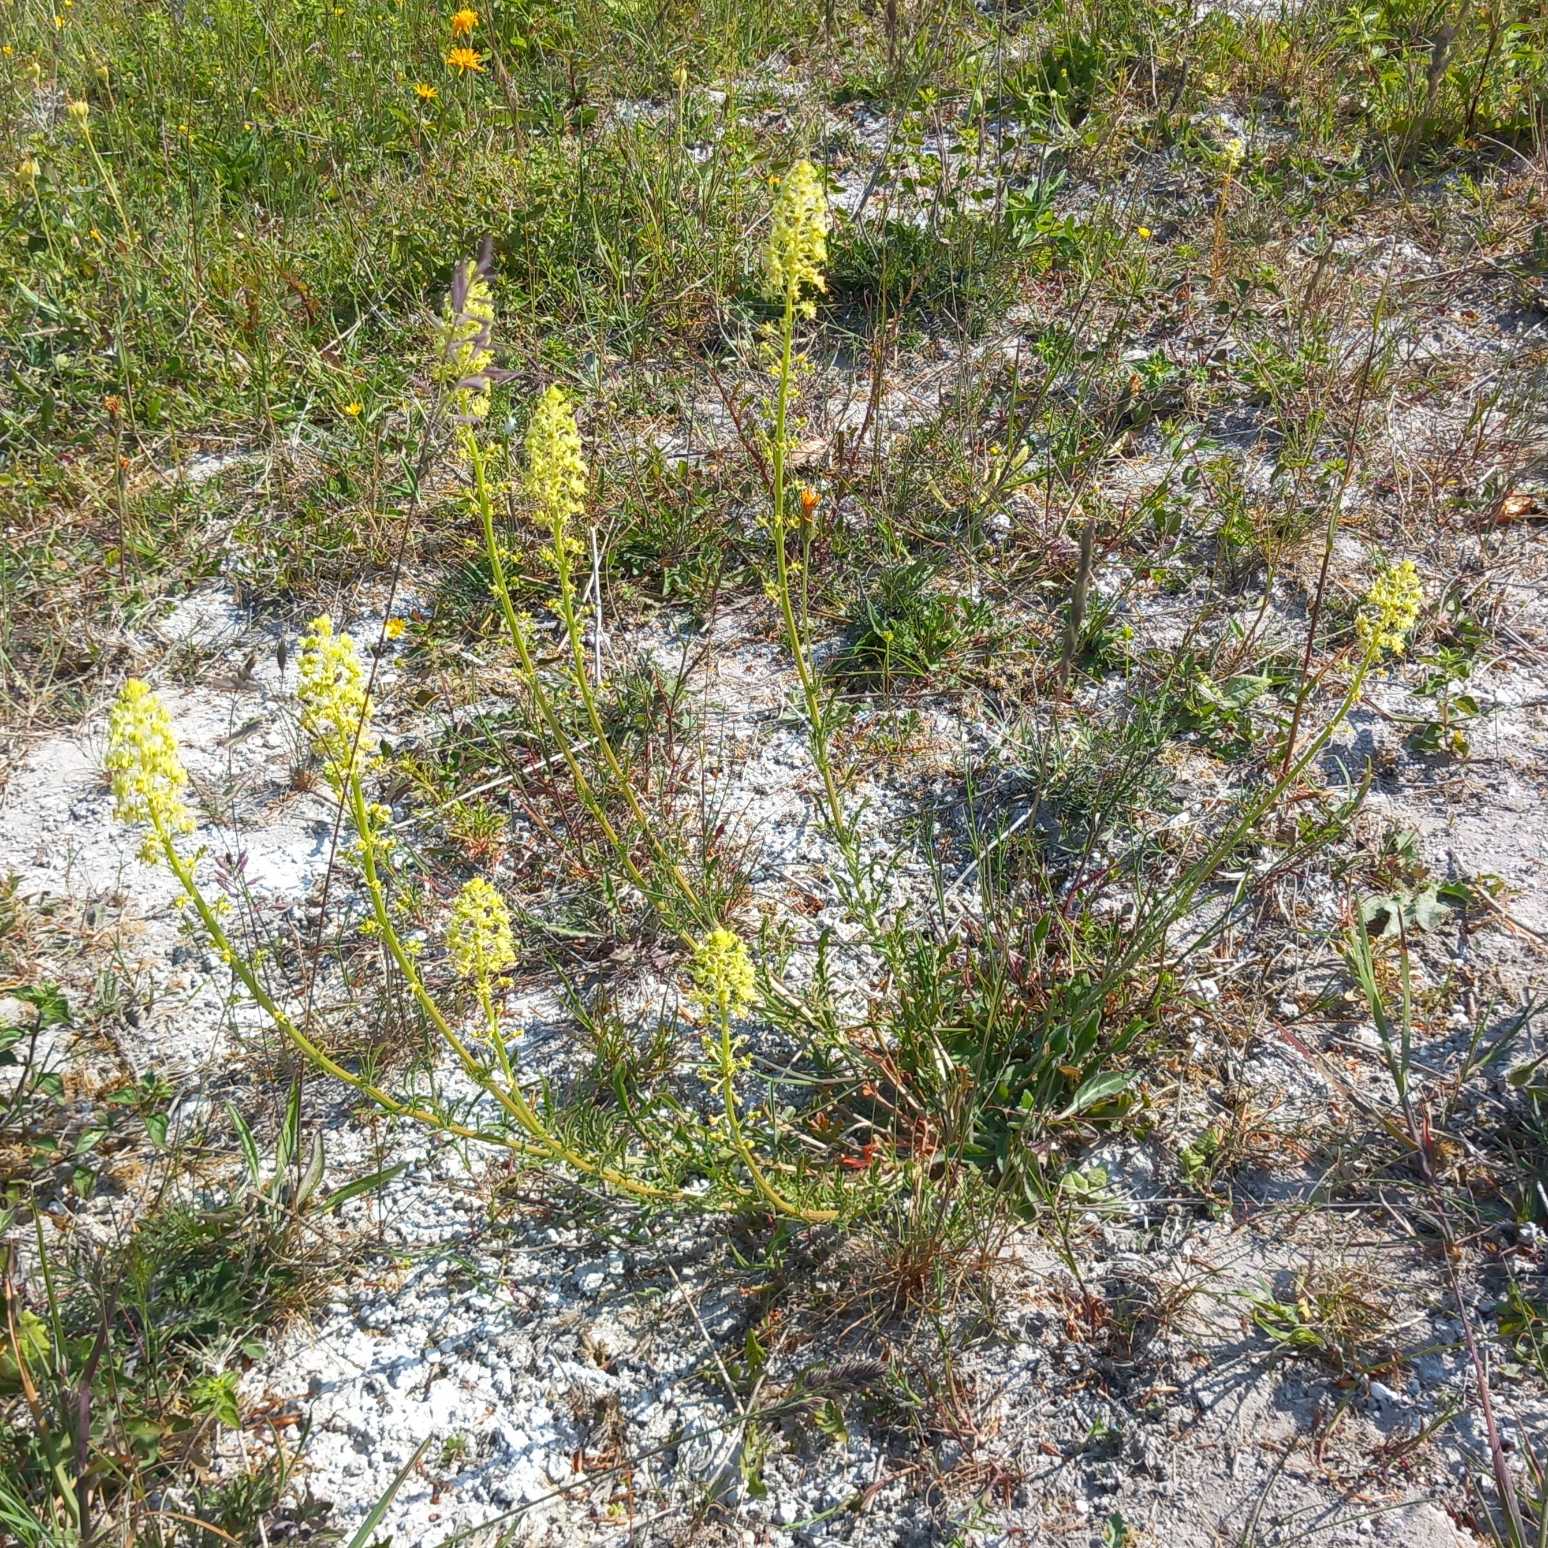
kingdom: Plantae
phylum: Tracheophyta
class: Magnoliopsida
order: Brassicales
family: Resedaceae
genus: Reseda
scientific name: Reseda lutea
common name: Gul reseda
